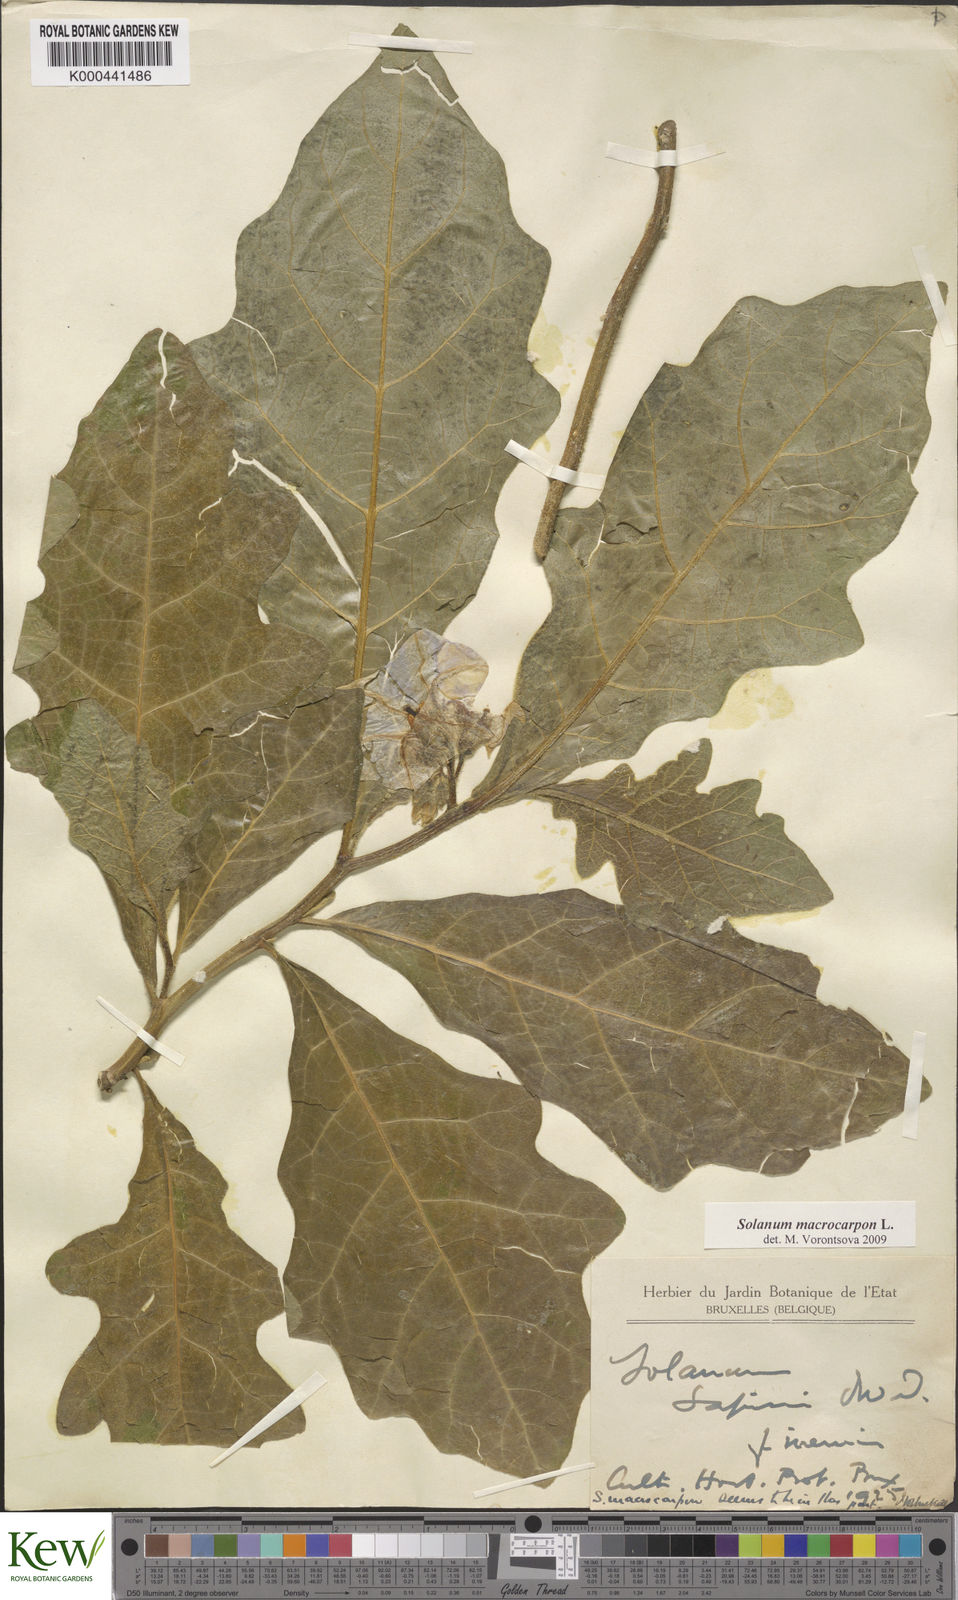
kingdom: Plantae
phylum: Tracheophyta
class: Magnoliopsida
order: Solanales
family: Solanaceae
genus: Solanum
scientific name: Solanum macrocarpon
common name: African eggplant
